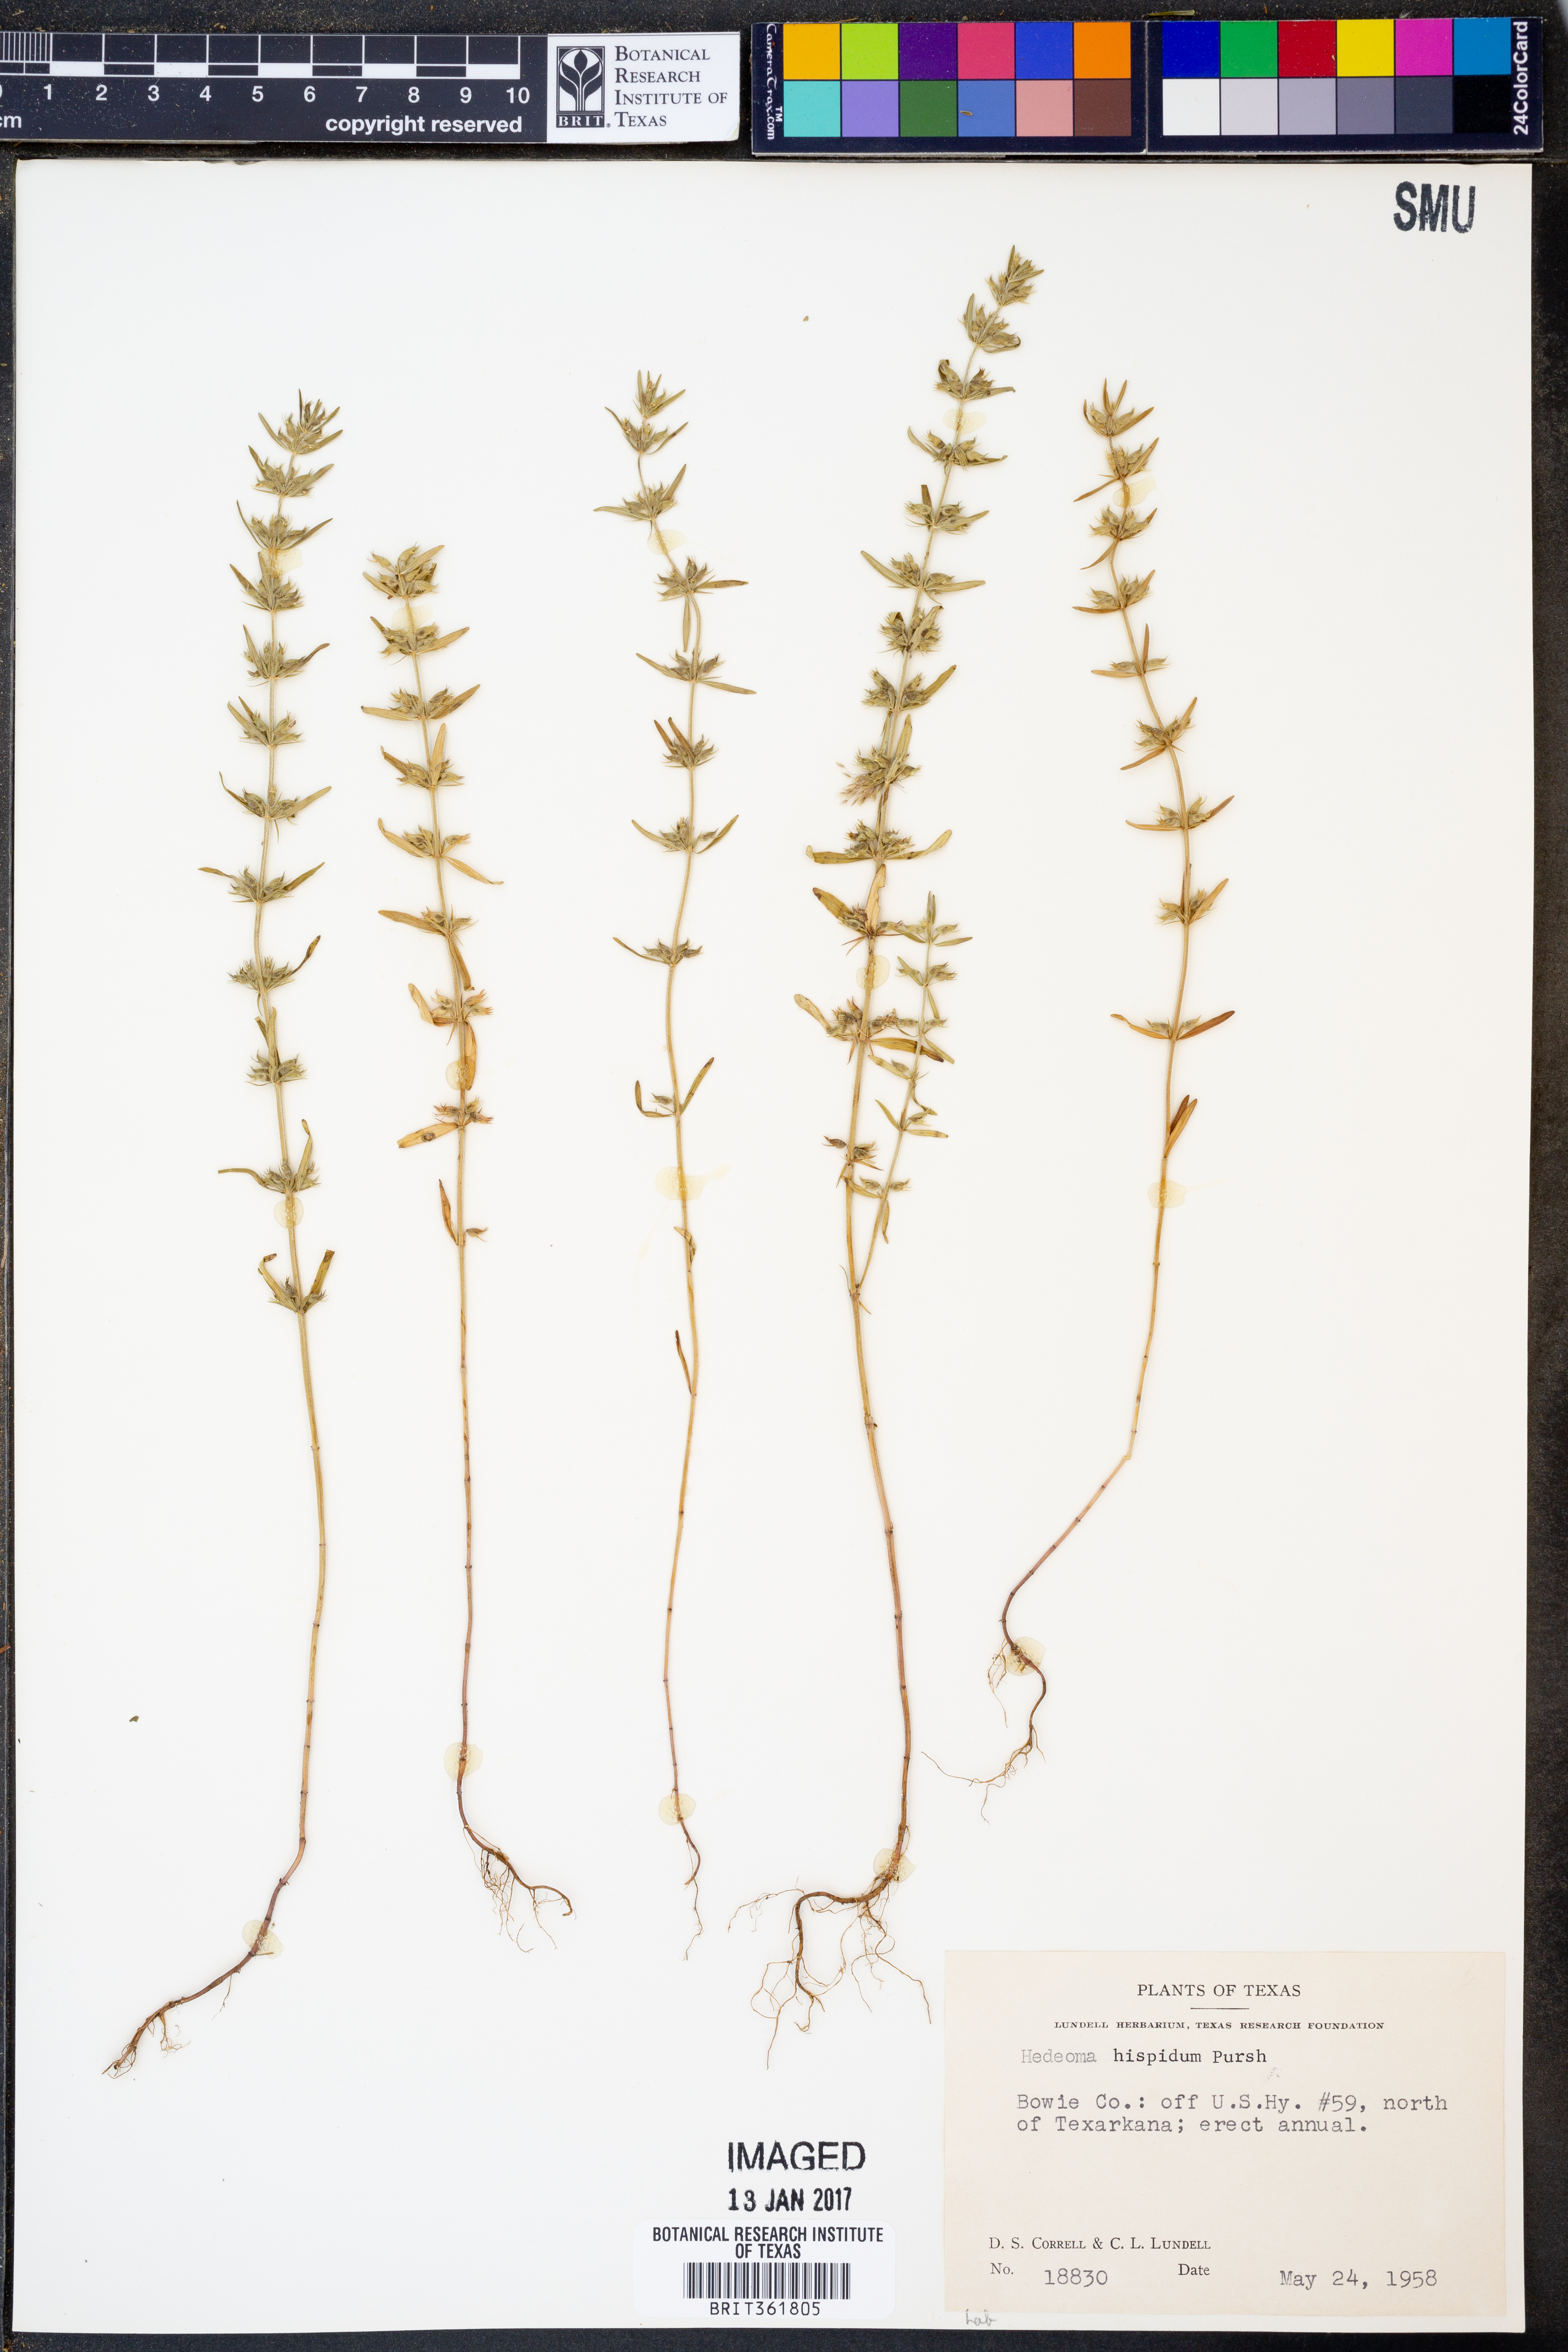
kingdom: Plantae
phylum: Tracheophyta
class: Magnoliopsida
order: Lamiales
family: Lamiaceae
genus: Hedeoma
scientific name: Hedeoma hispida
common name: Mock pennyroyal
